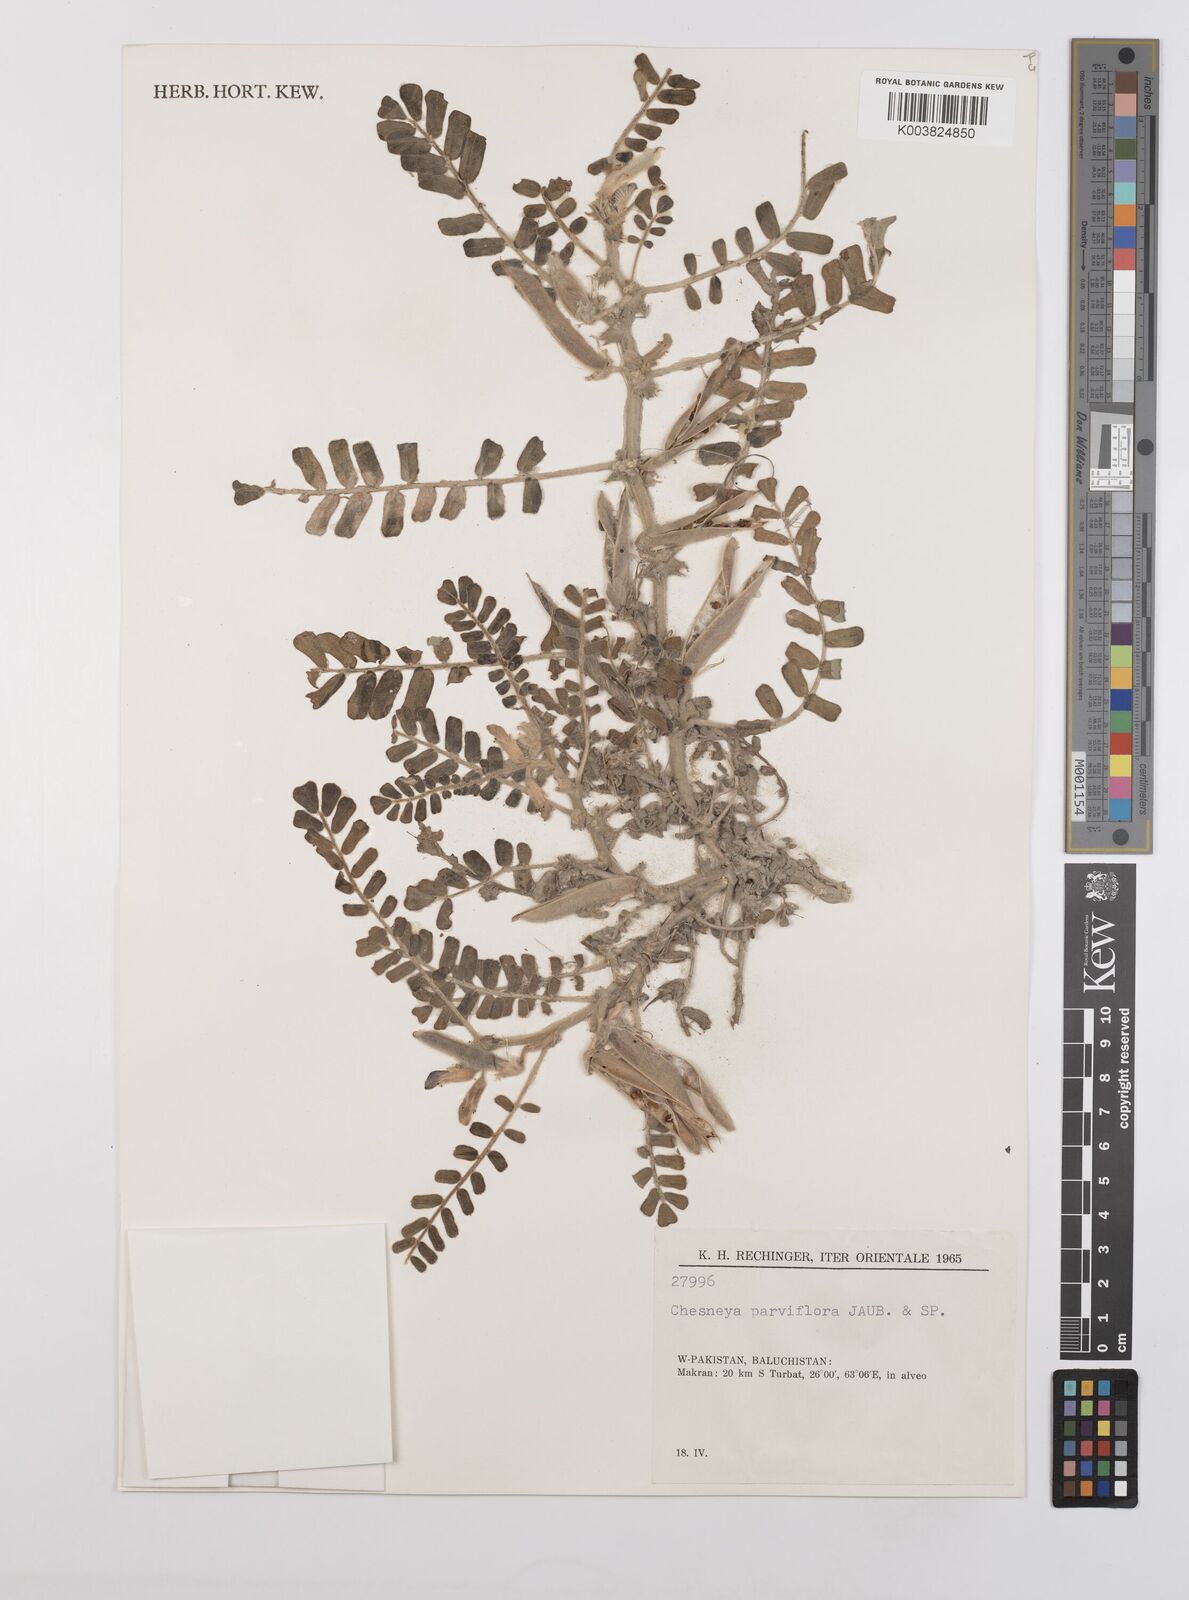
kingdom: Plantae
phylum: Tracheophyta
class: Magnoliopsida
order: Fabales
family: Fabaceae
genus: Chesneya
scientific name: Chesneya parviflora
